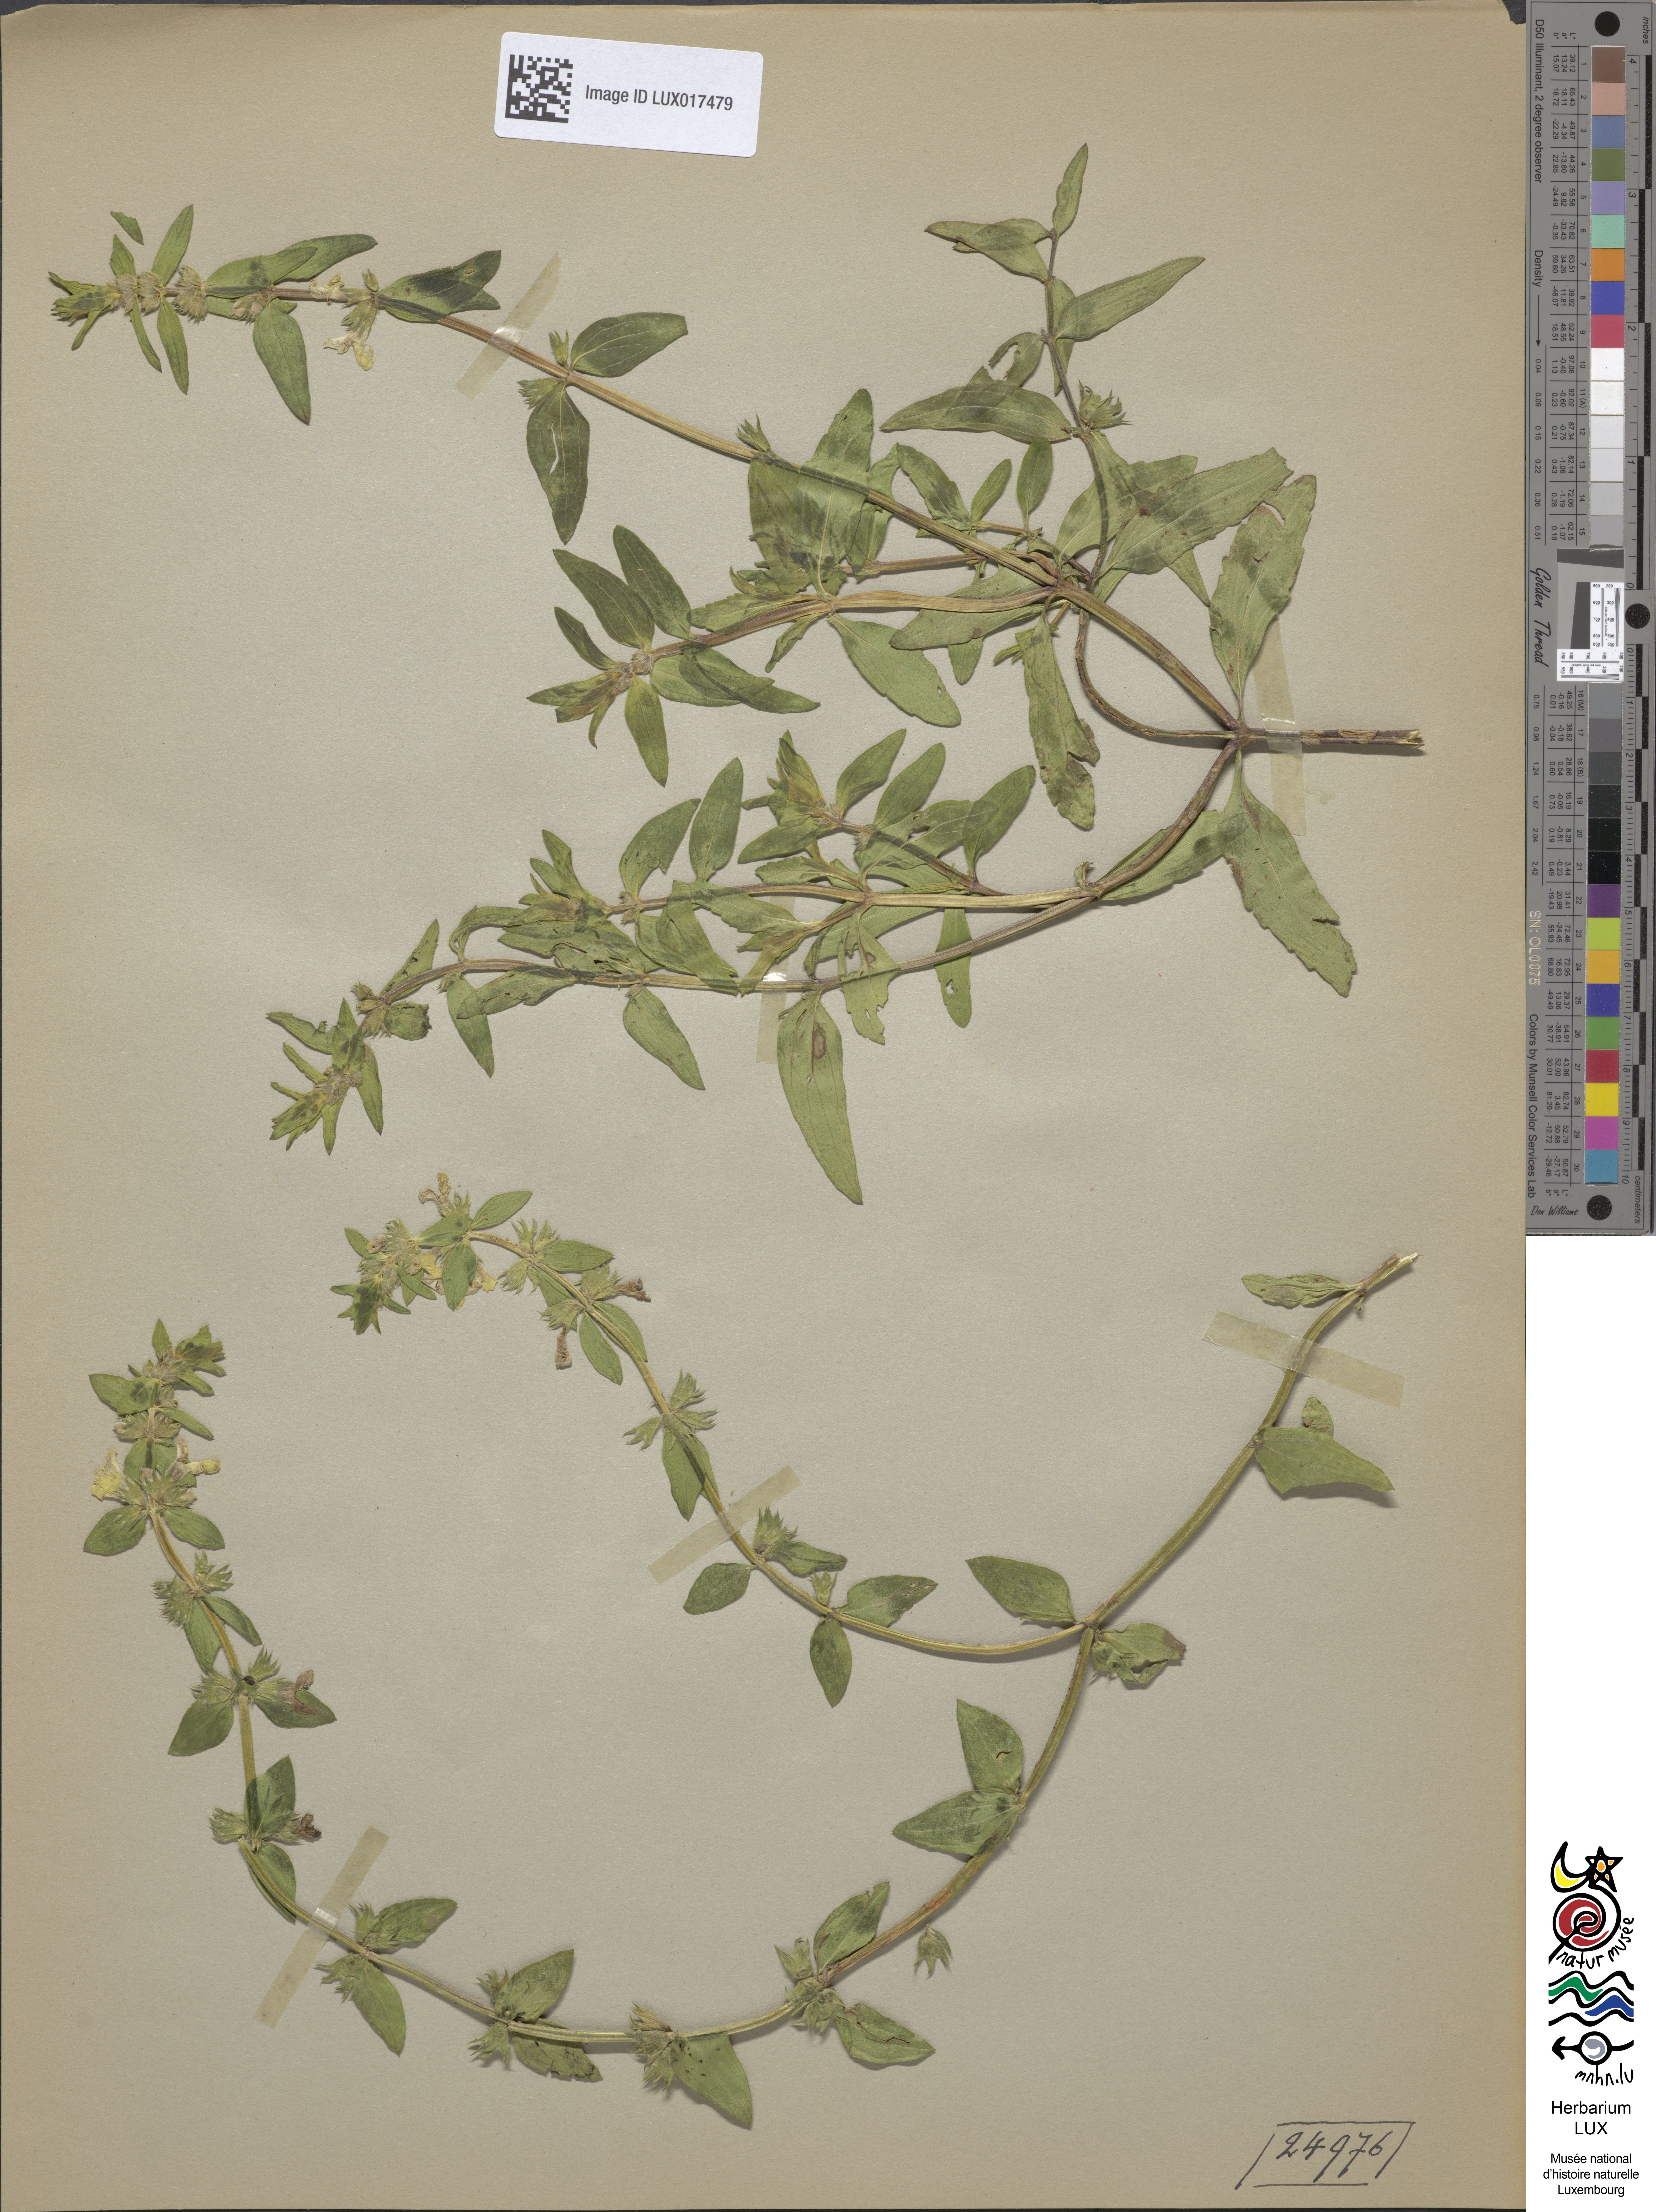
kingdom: Plantae
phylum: Tracheophyta
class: Magnoliopsida
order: Lamiales
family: Lamiaceae
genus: Stachys
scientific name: Stachys annua
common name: Annual yellow-woundwort
